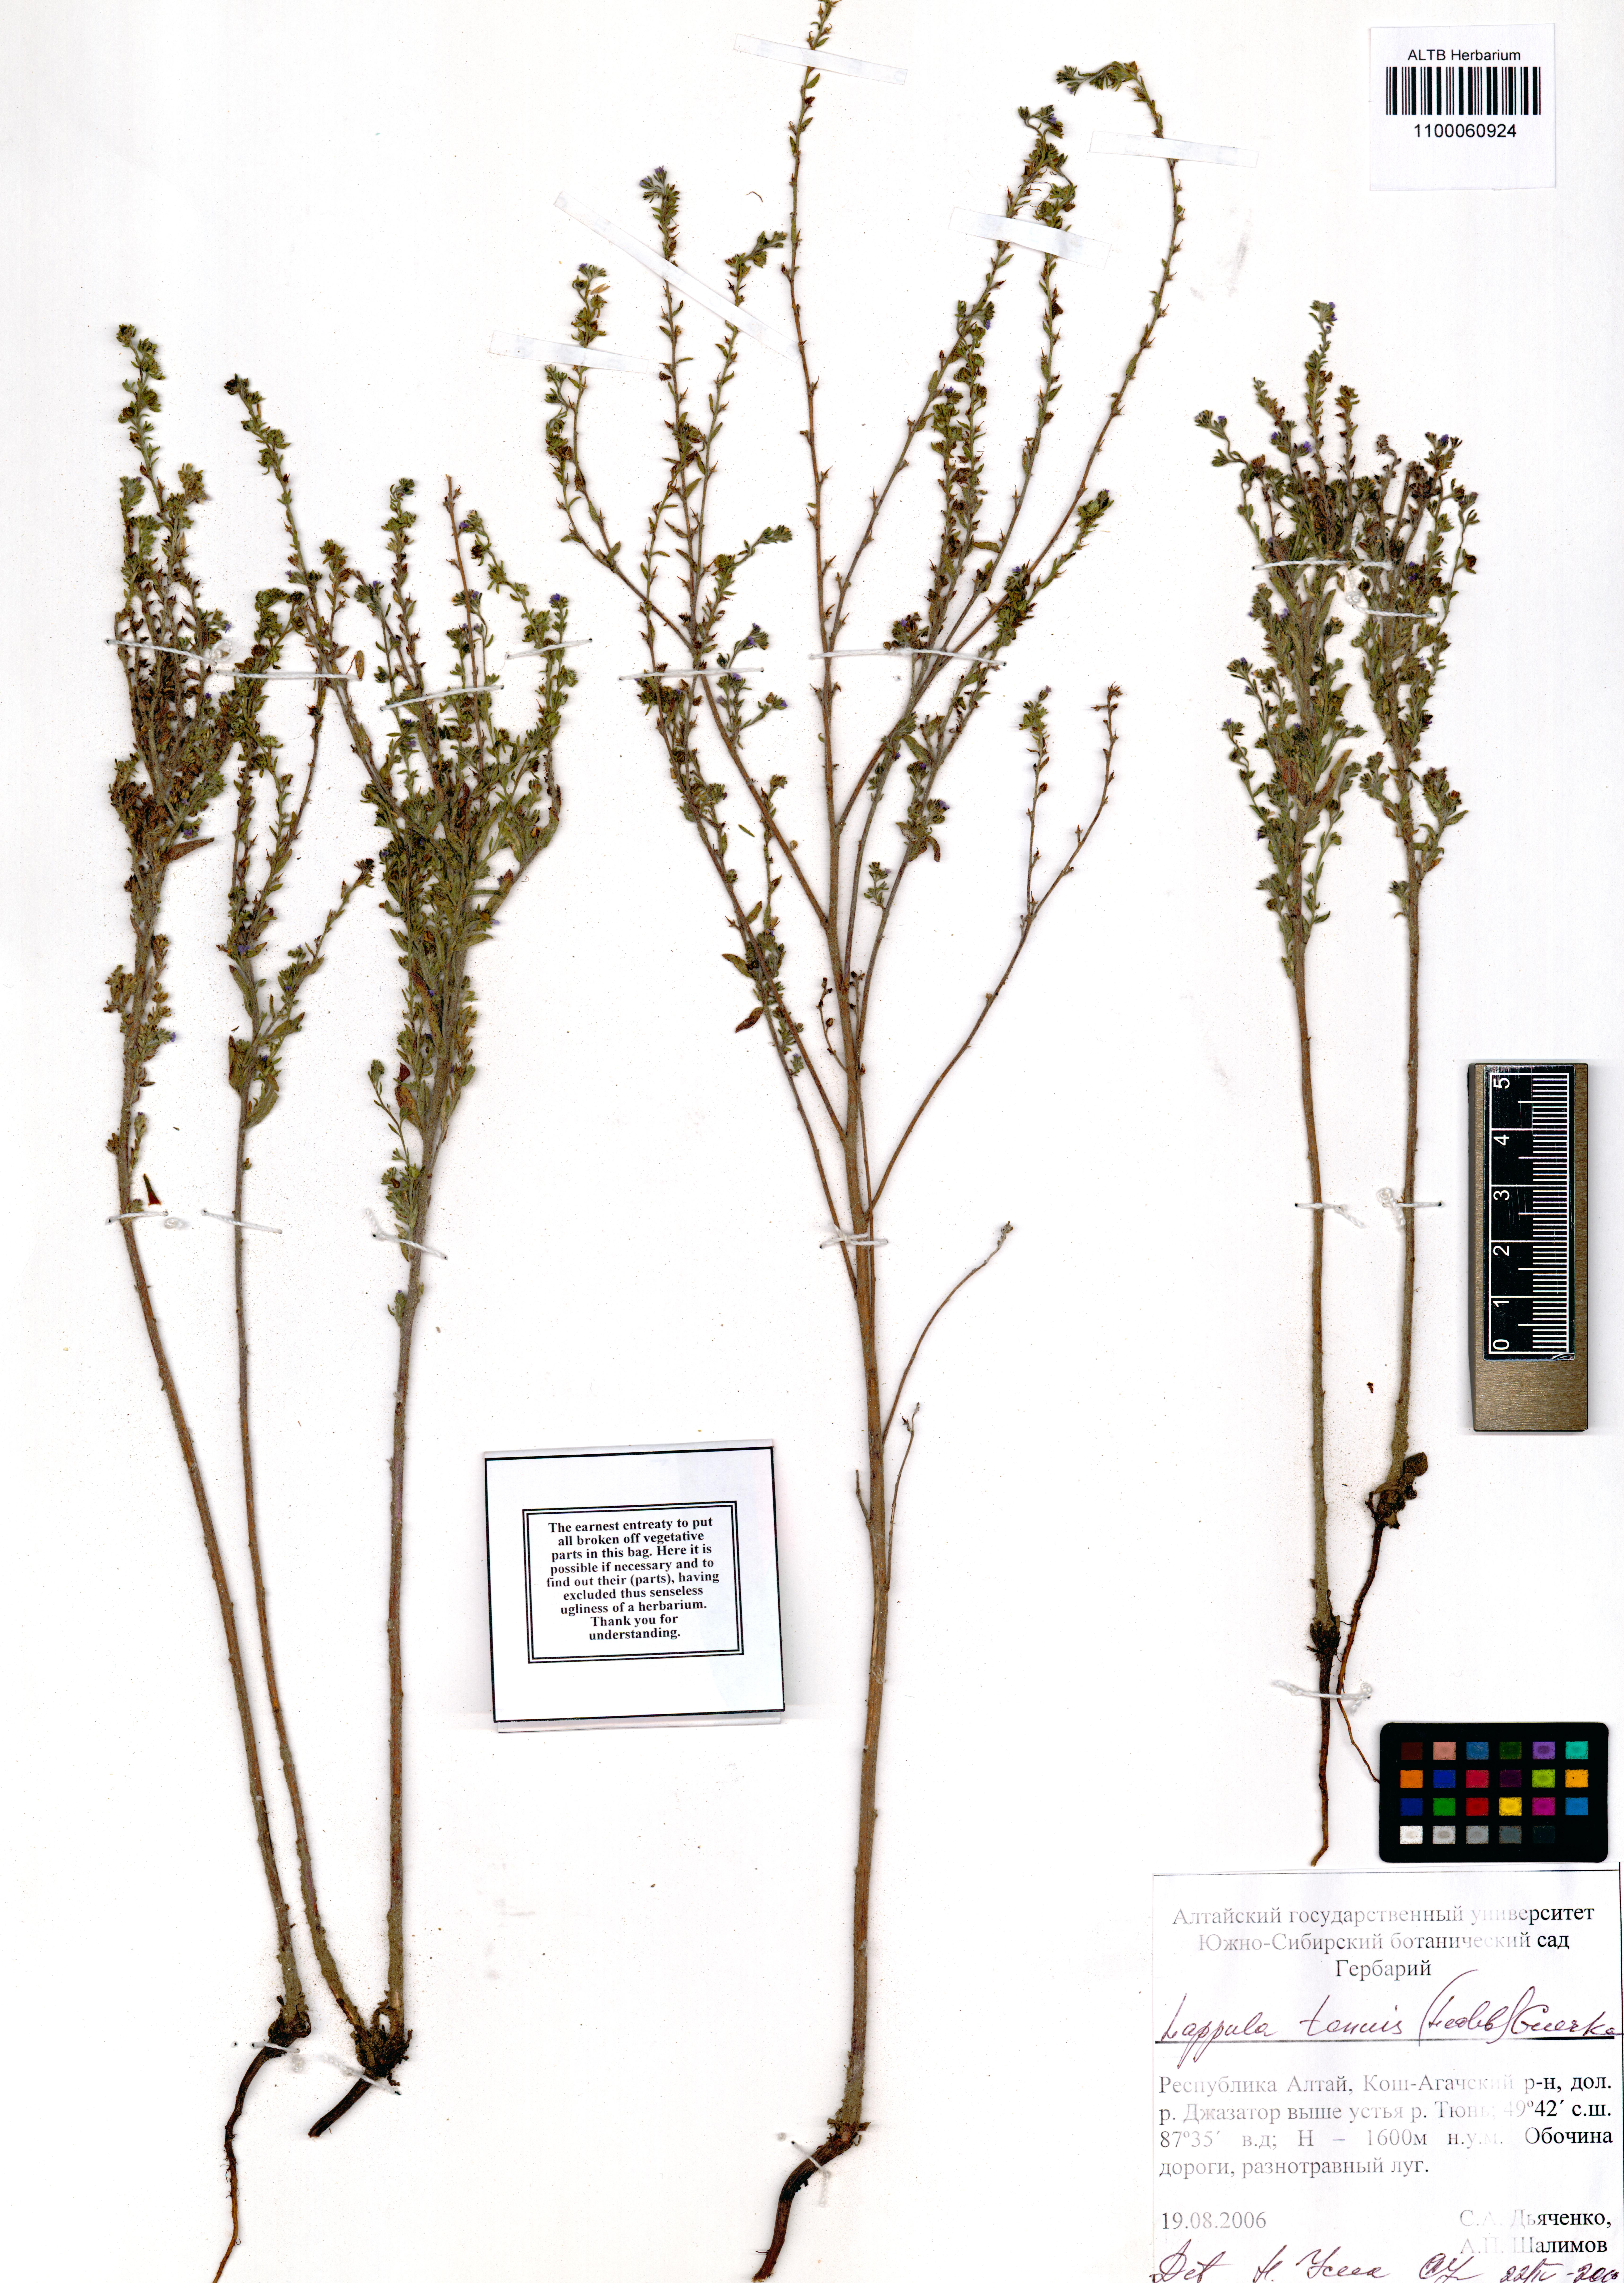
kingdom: Plantae
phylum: Tracheophyta
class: Magnoliopsida
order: Boraginales
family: Boraginaceae
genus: Lappula
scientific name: Lappula tenuis
